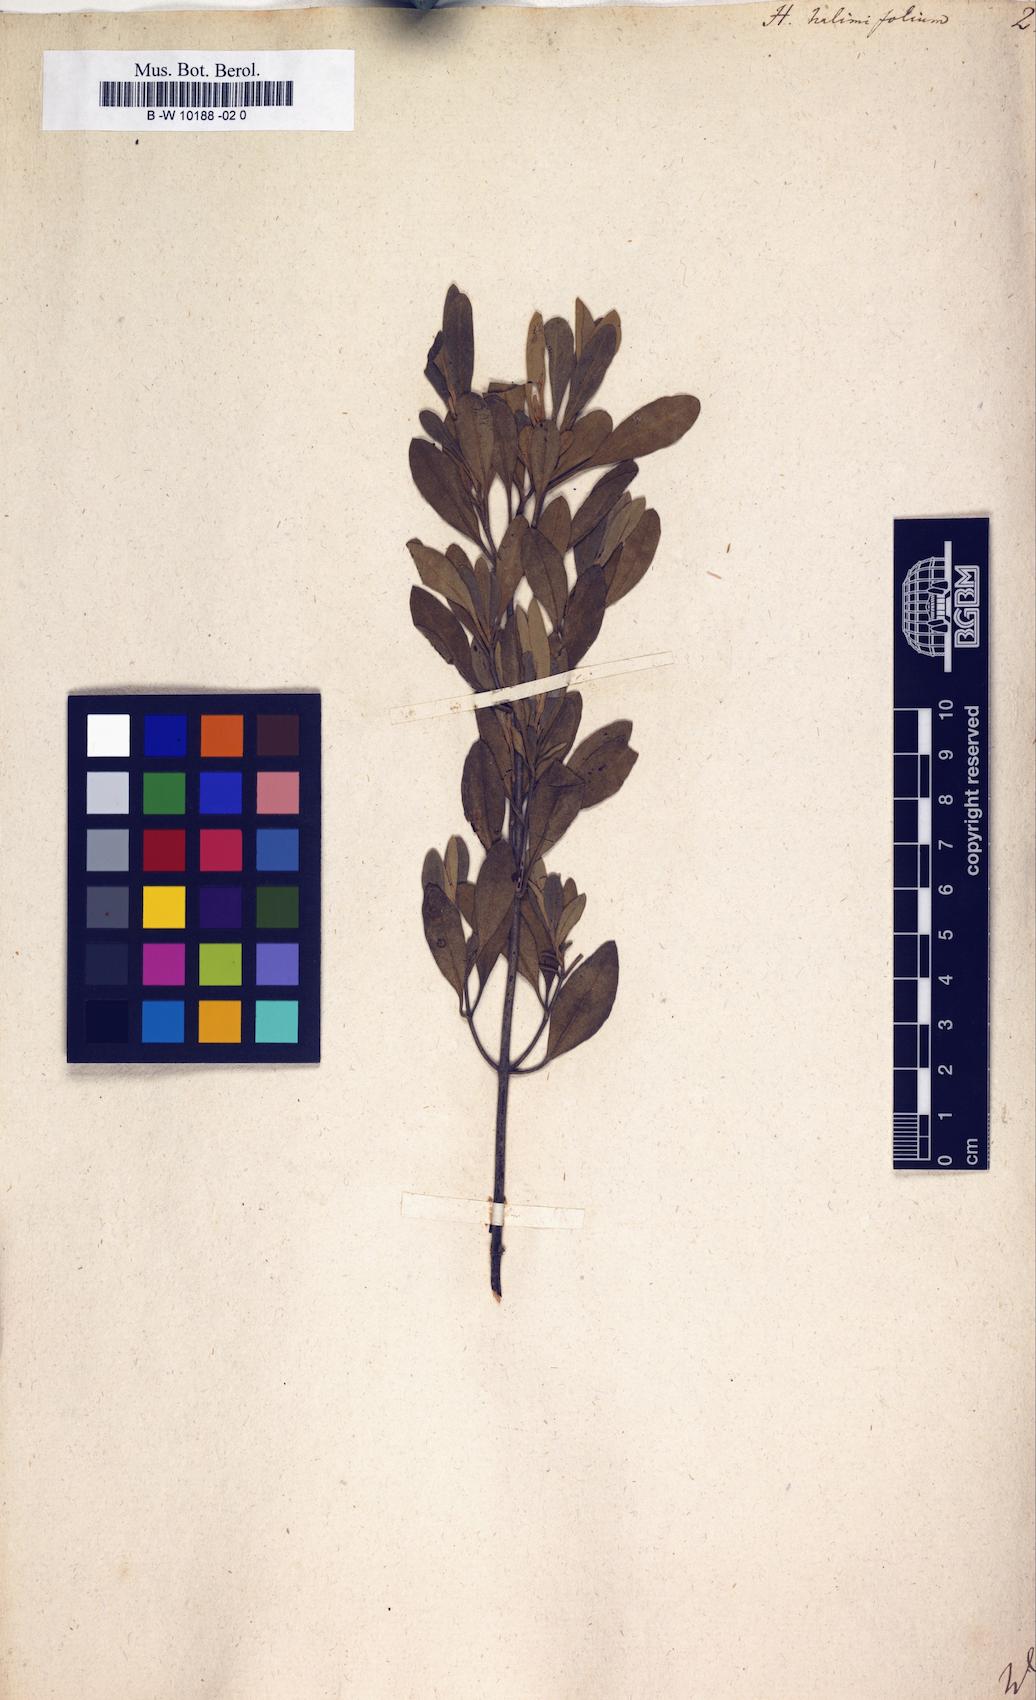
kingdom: Plantae
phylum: Tracheophyta
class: Magnoliopsida
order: Malvales
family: Cistaceae
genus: Halimium
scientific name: Halimium halimifolium
